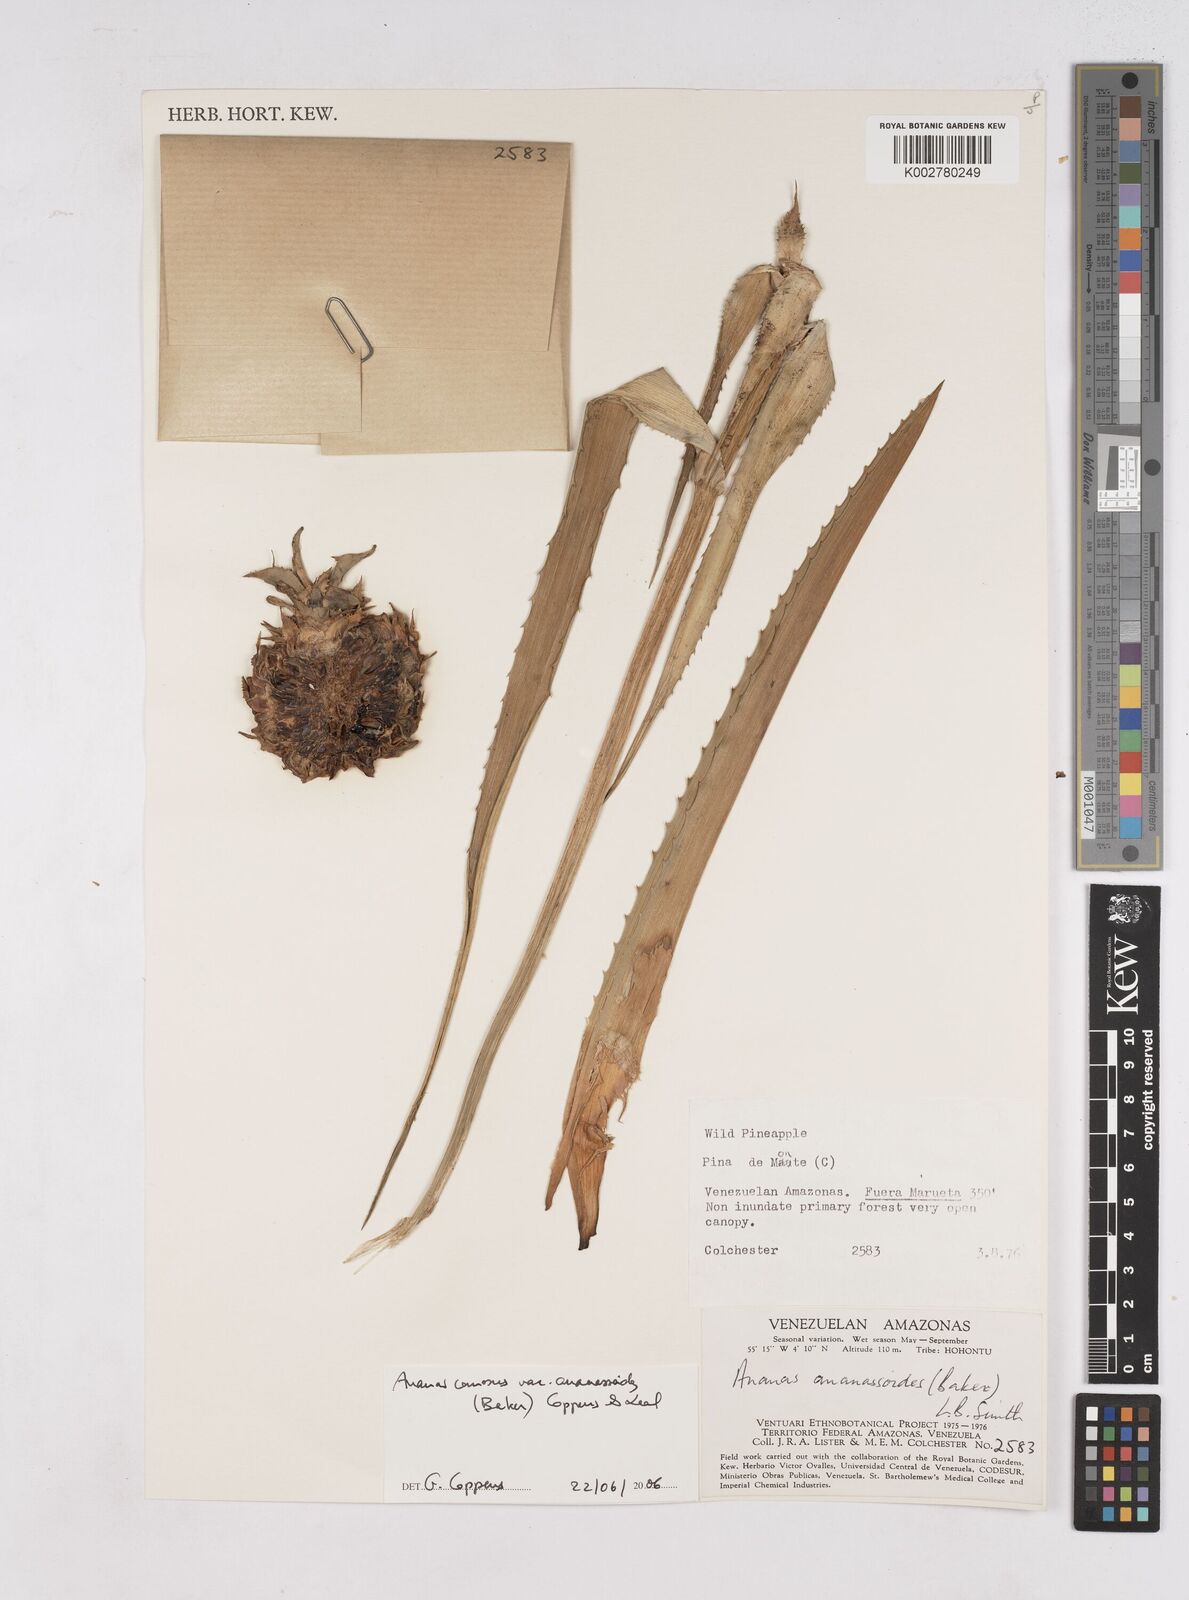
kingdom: Plantae
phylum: Tracheophyta
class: Liliopsida
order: Poales
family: Bromeliaceae
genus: Ananas
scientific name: Ananas comosus
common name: Pineapple
